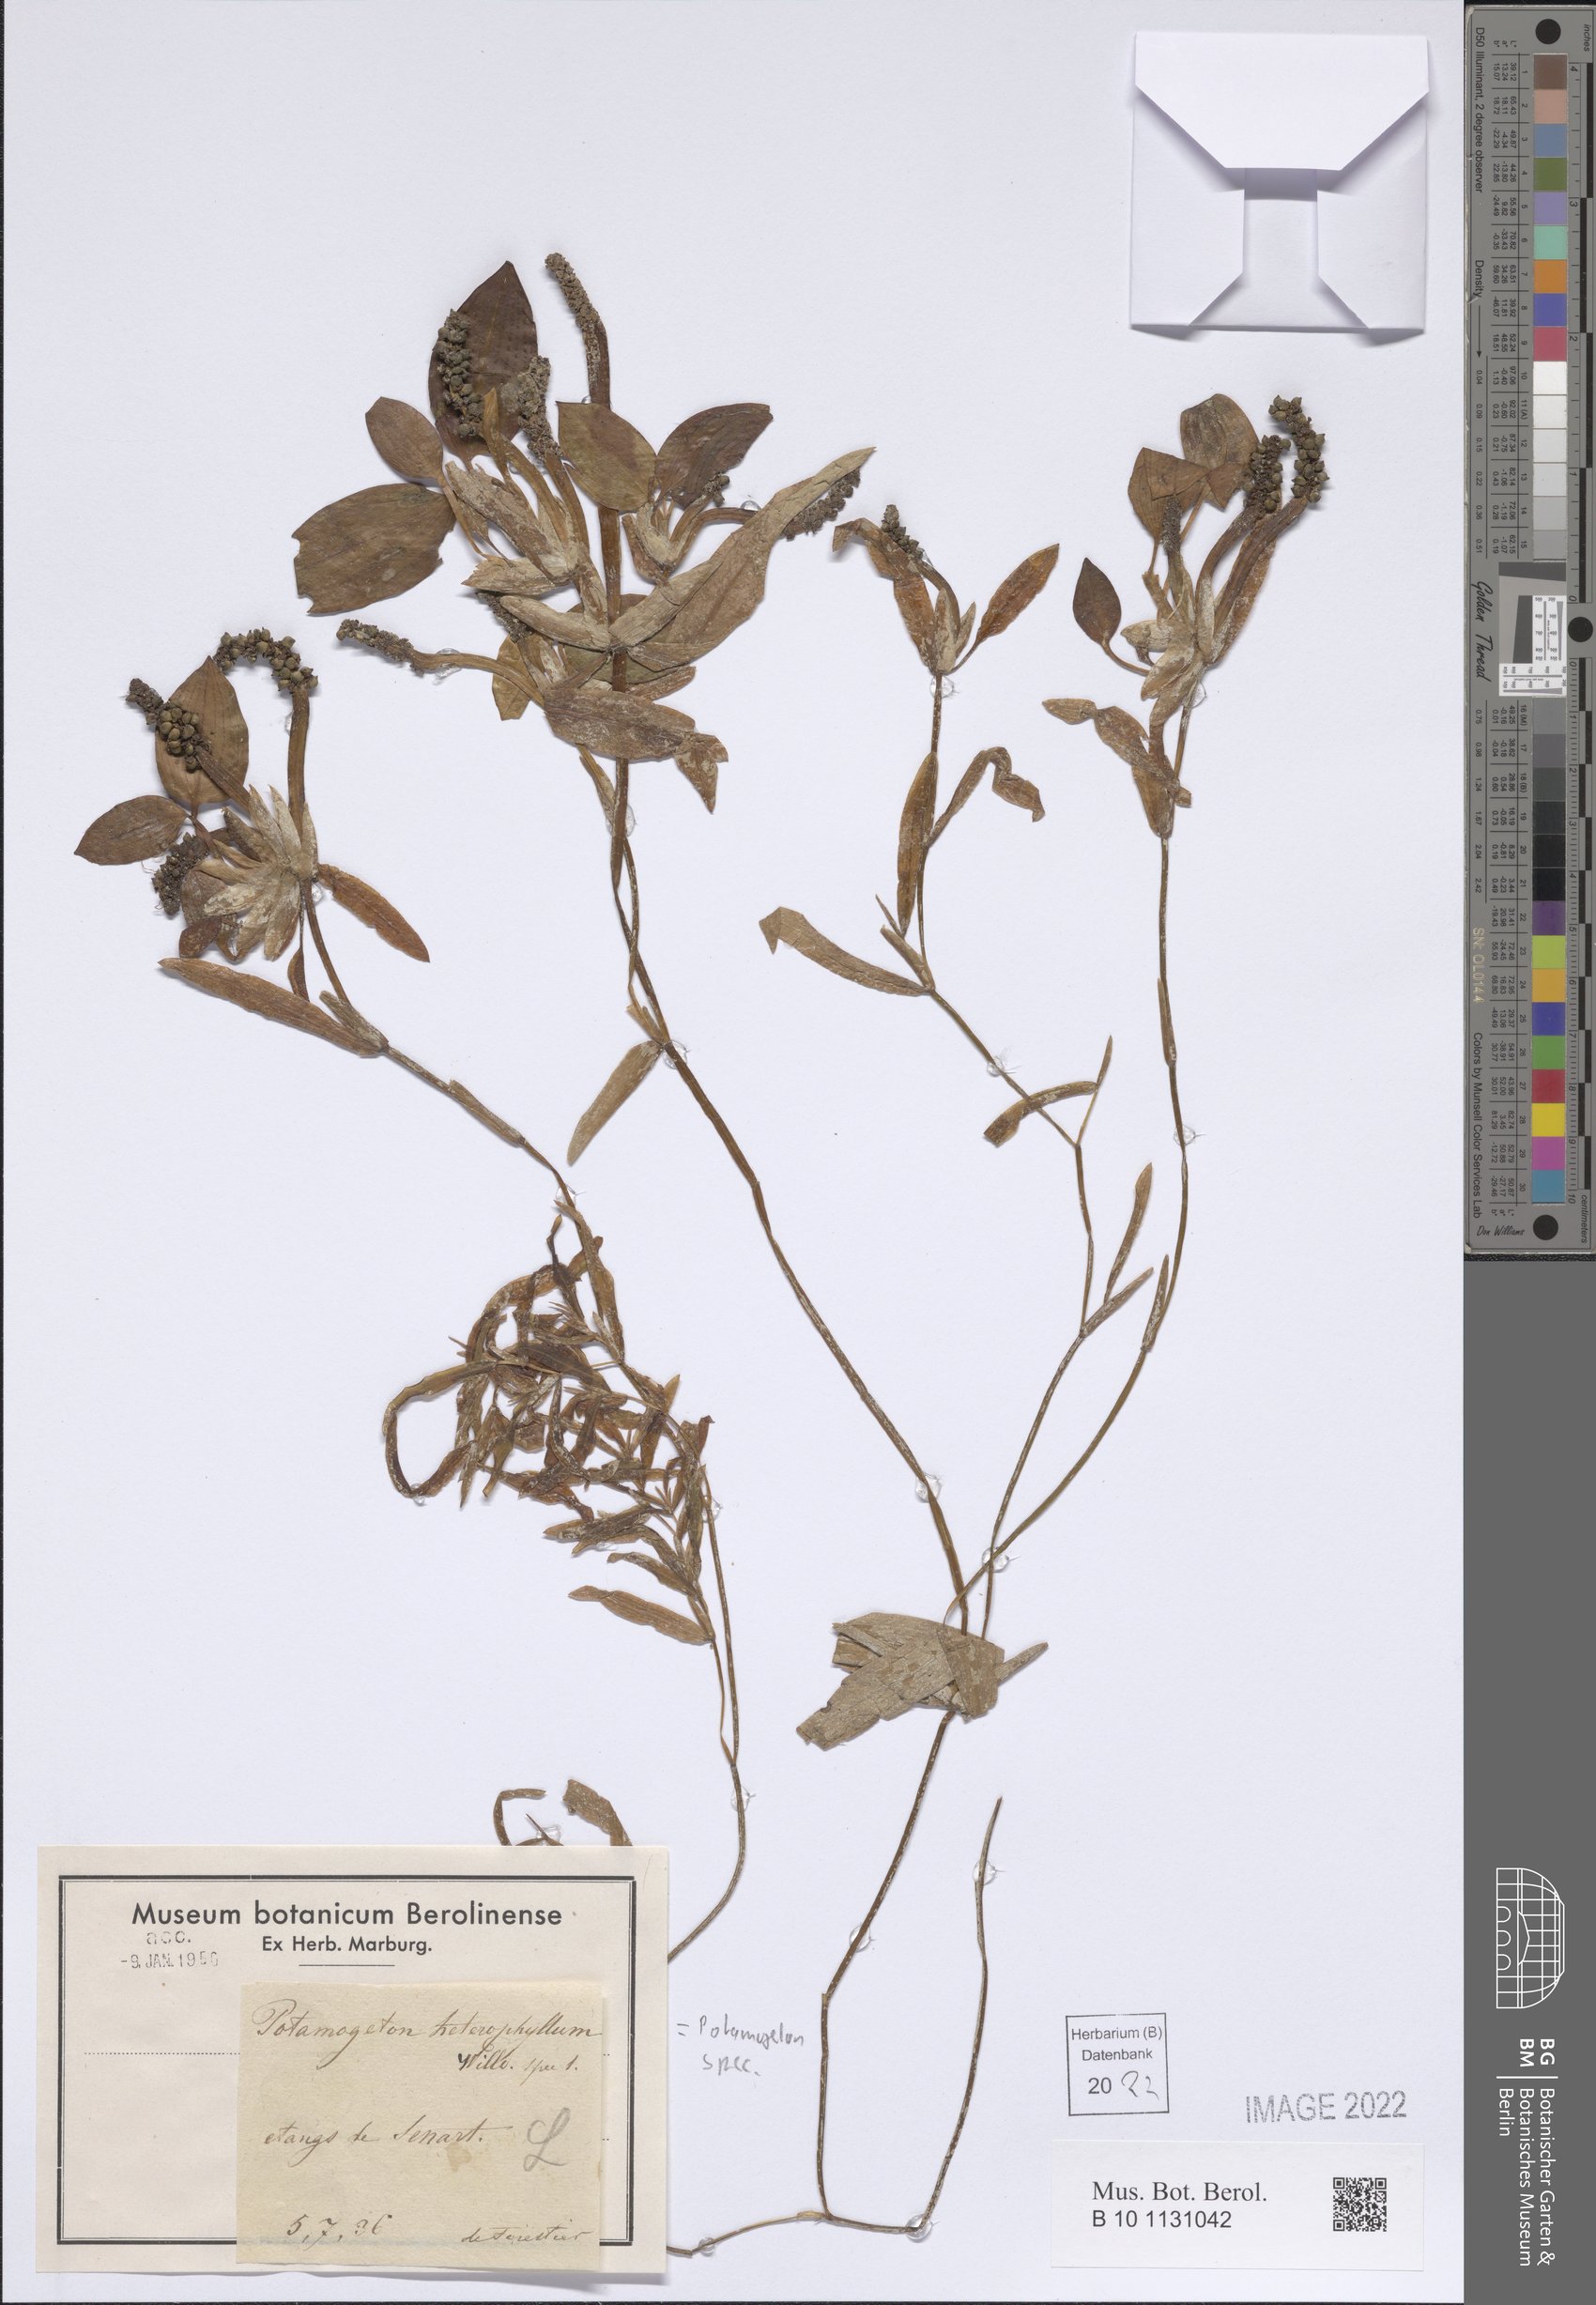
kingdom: Plantae
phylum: Tracheophyta
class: Liliopsida
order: Alismatales
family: Potamogetonaceae
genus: Potamogeton
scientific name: Potamogeton
